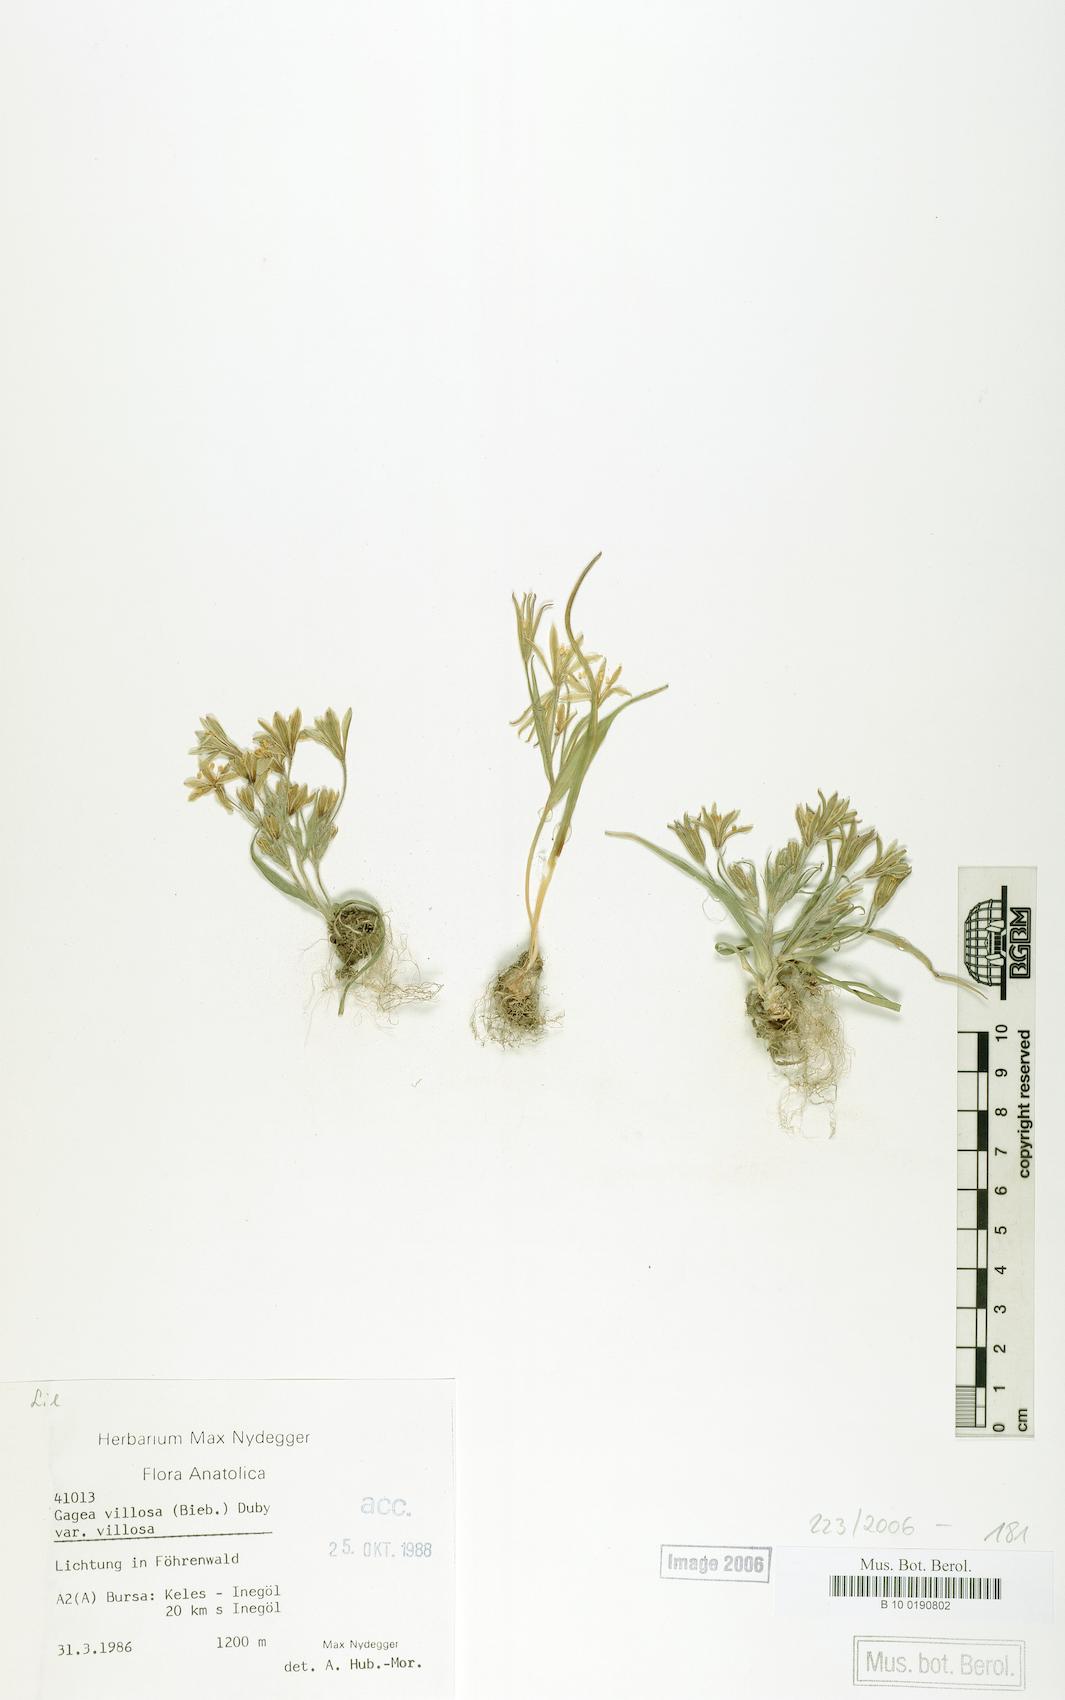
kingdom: Plantae
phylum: Tracheophyta
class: Liliopsida
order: Liliales
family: Liliaceae
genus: Gagea
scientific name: Gagea villosa
